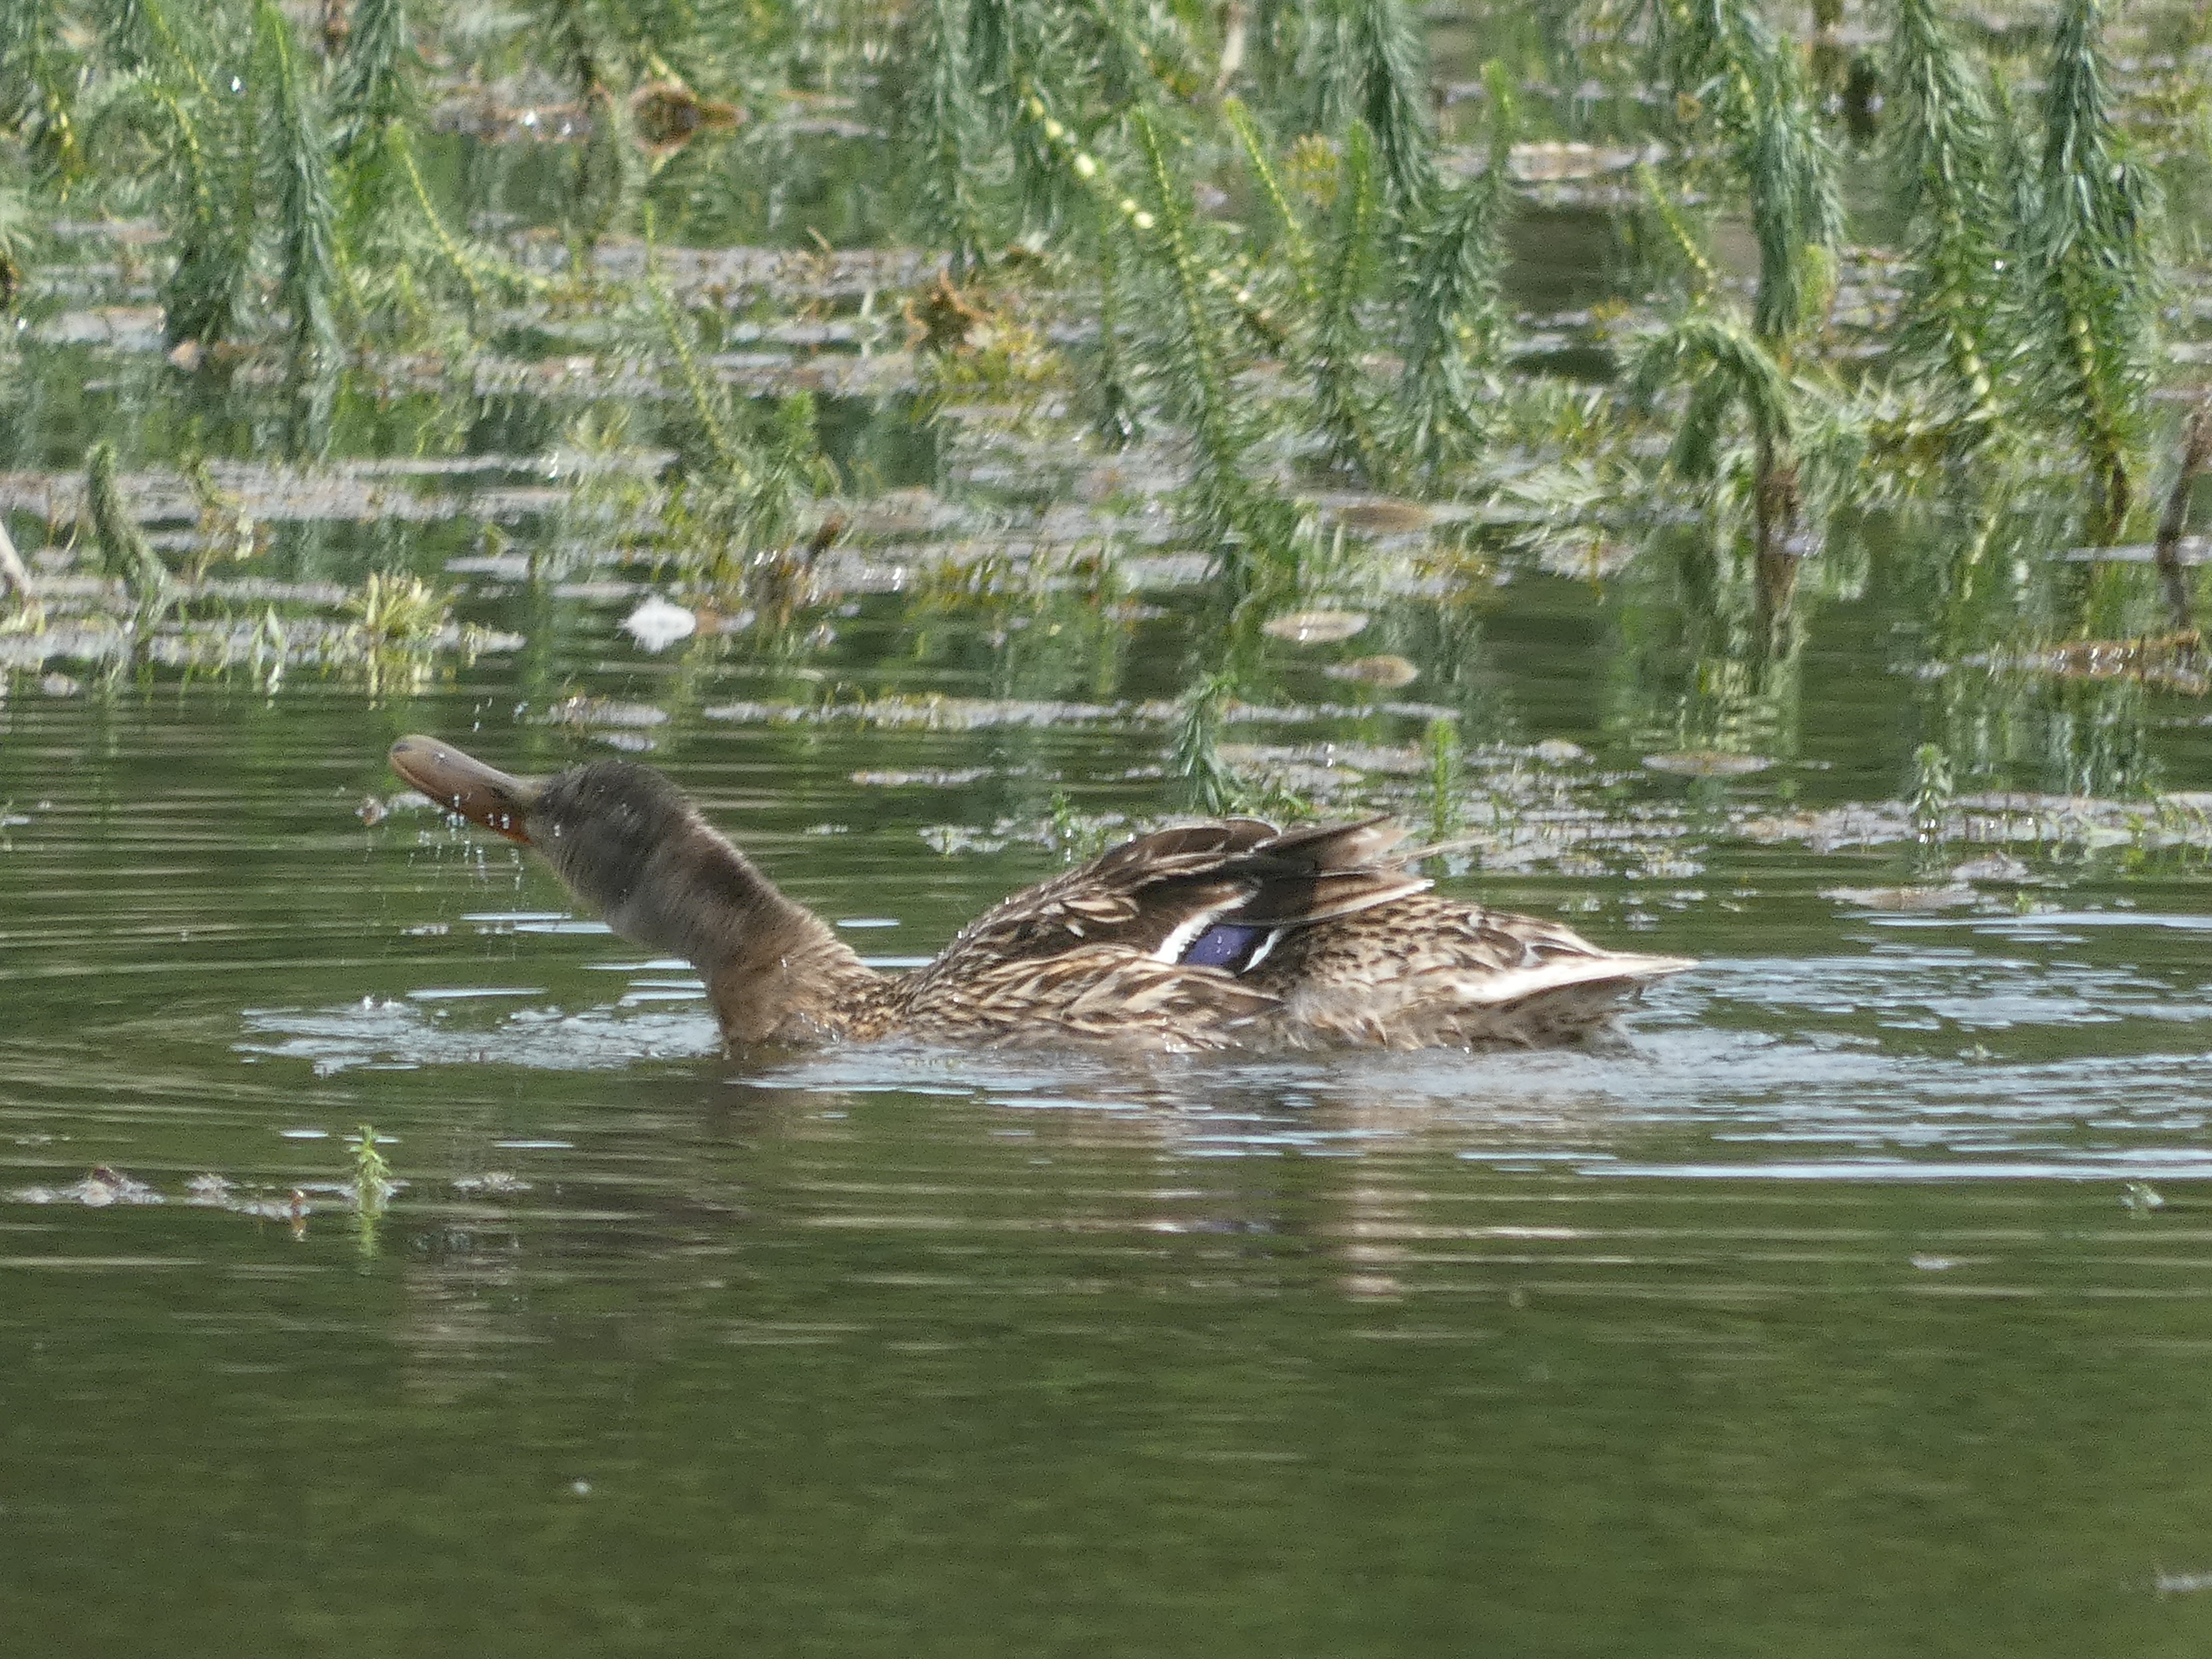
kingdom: Animalia
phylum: Chordata
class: Aves
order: Anseriformes
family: Anatidae
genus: Anas
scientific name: Anas platyrhynchos
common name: Gråand
